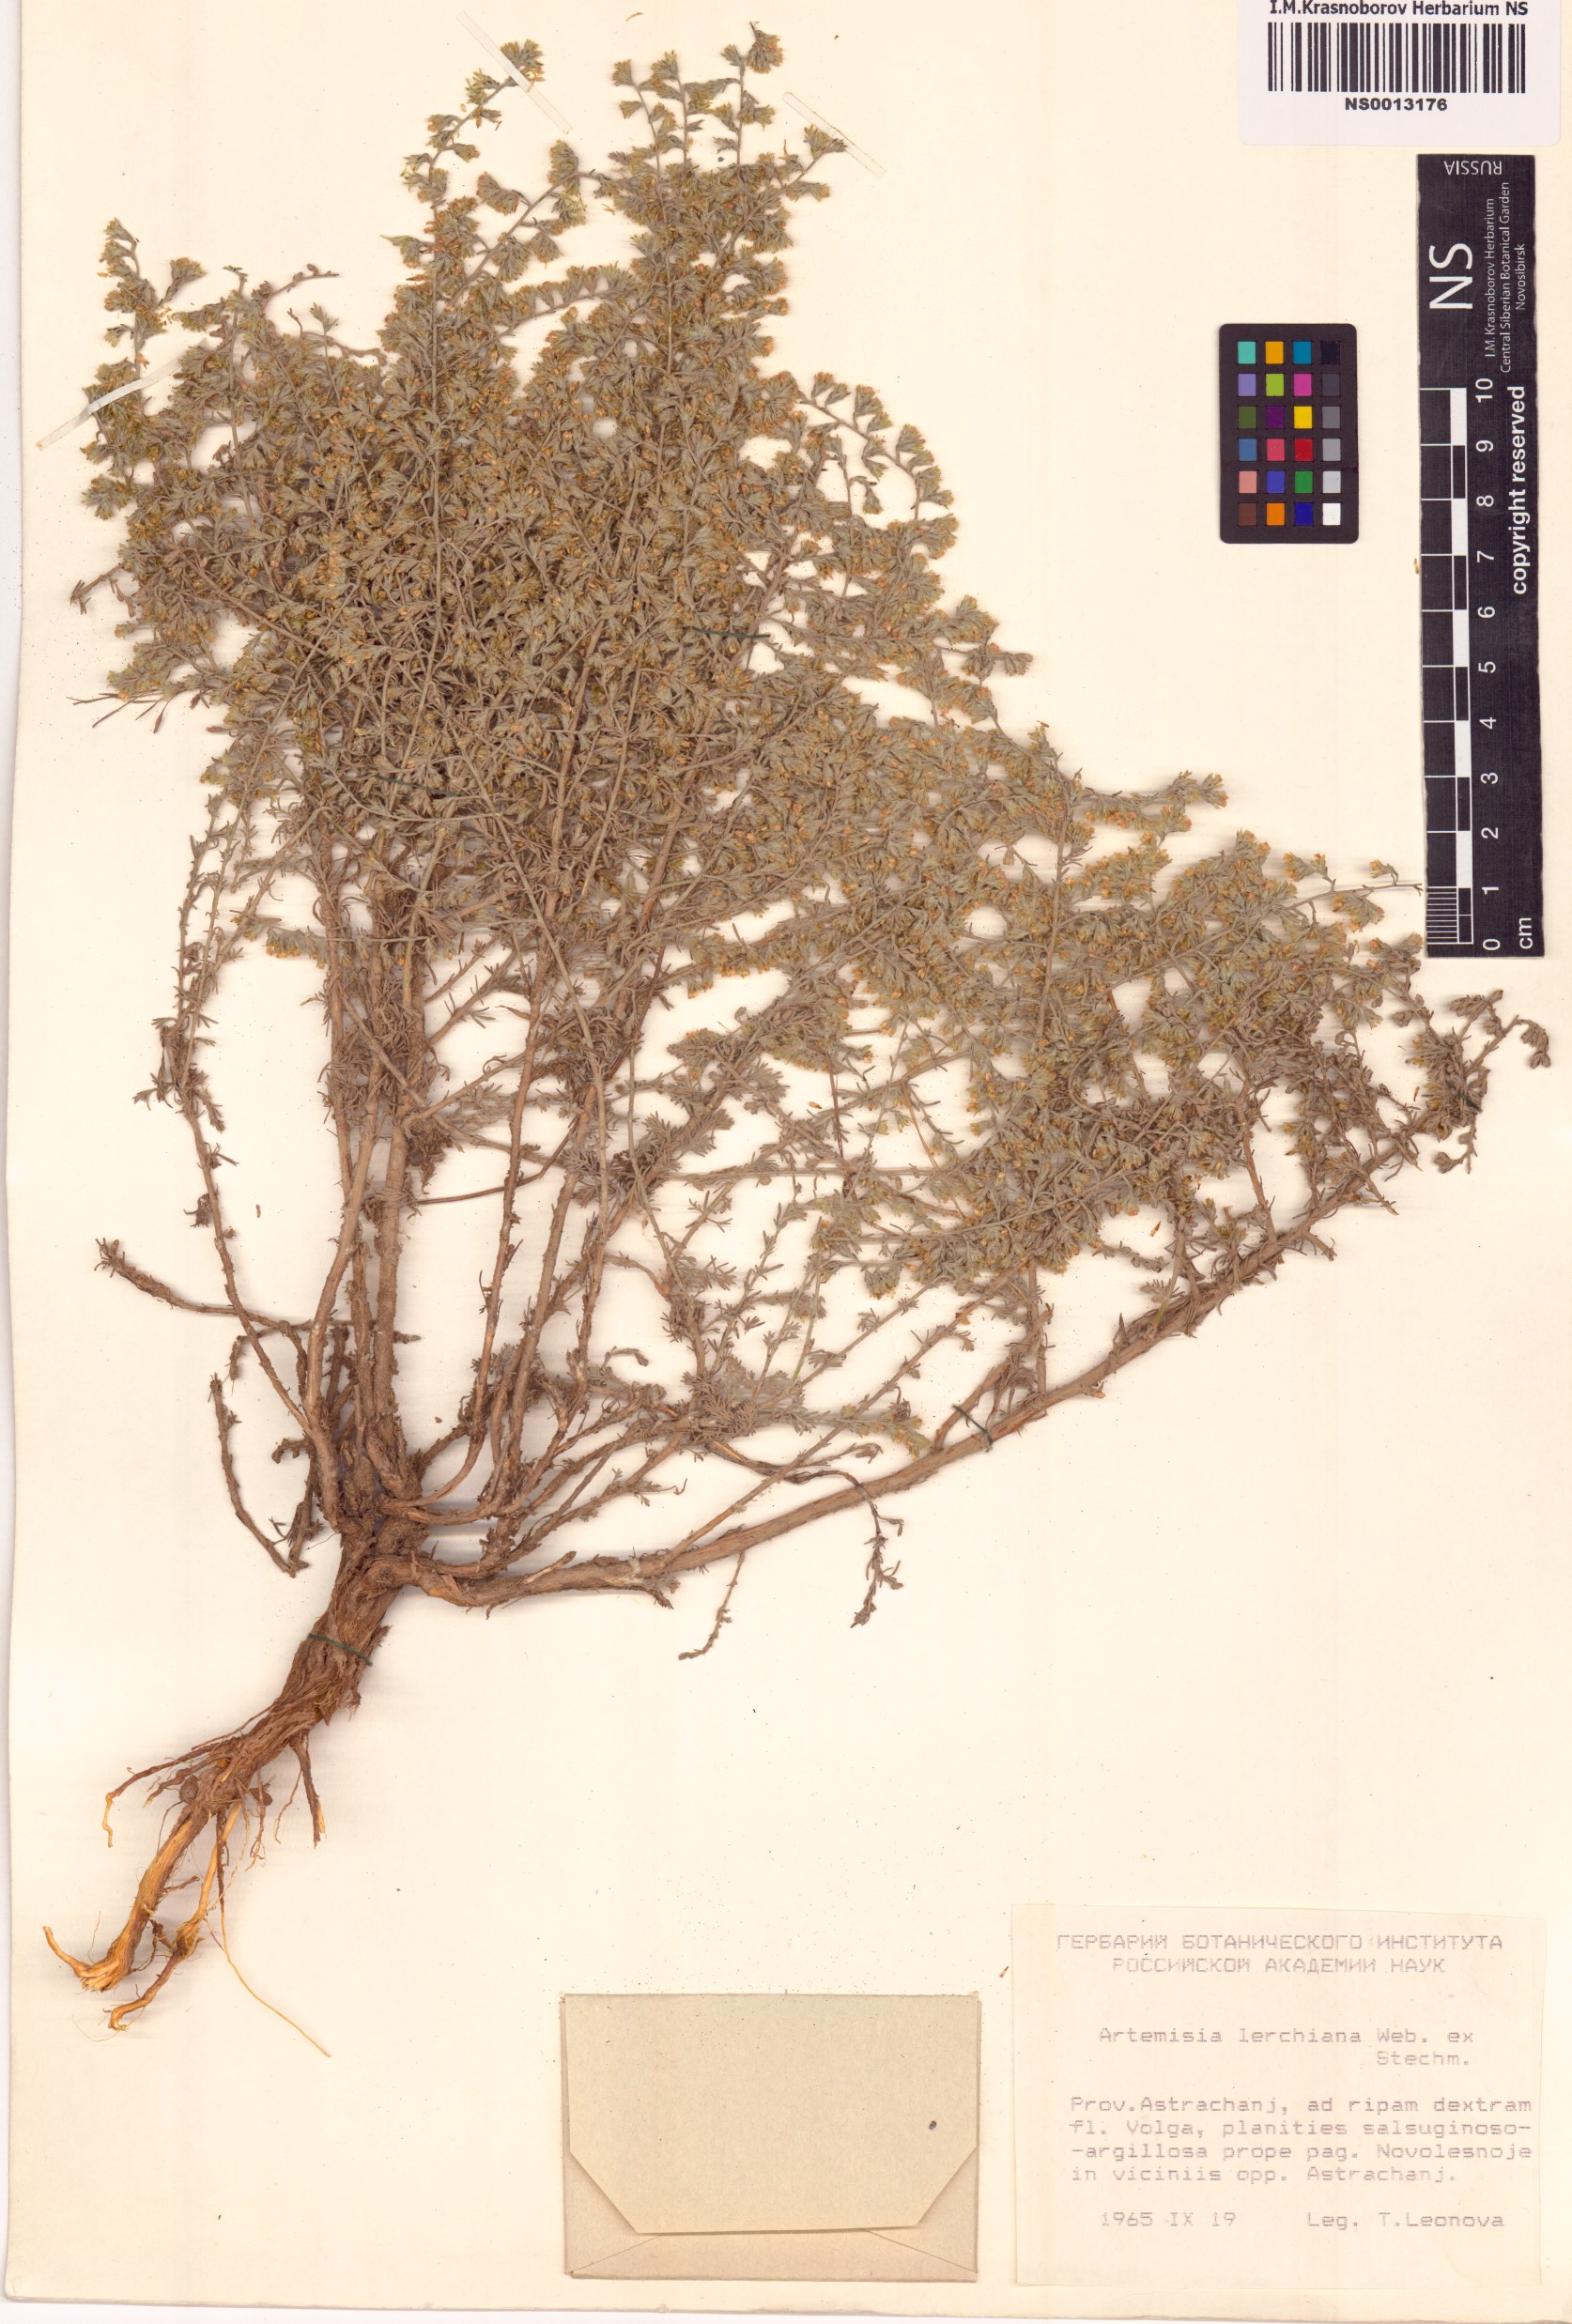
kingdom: Plantae
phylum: Tracheophyta
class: Magnoliopsida
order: Asterales
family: Asteraceae
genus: Artemisia
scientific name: Artemisia lercheana
